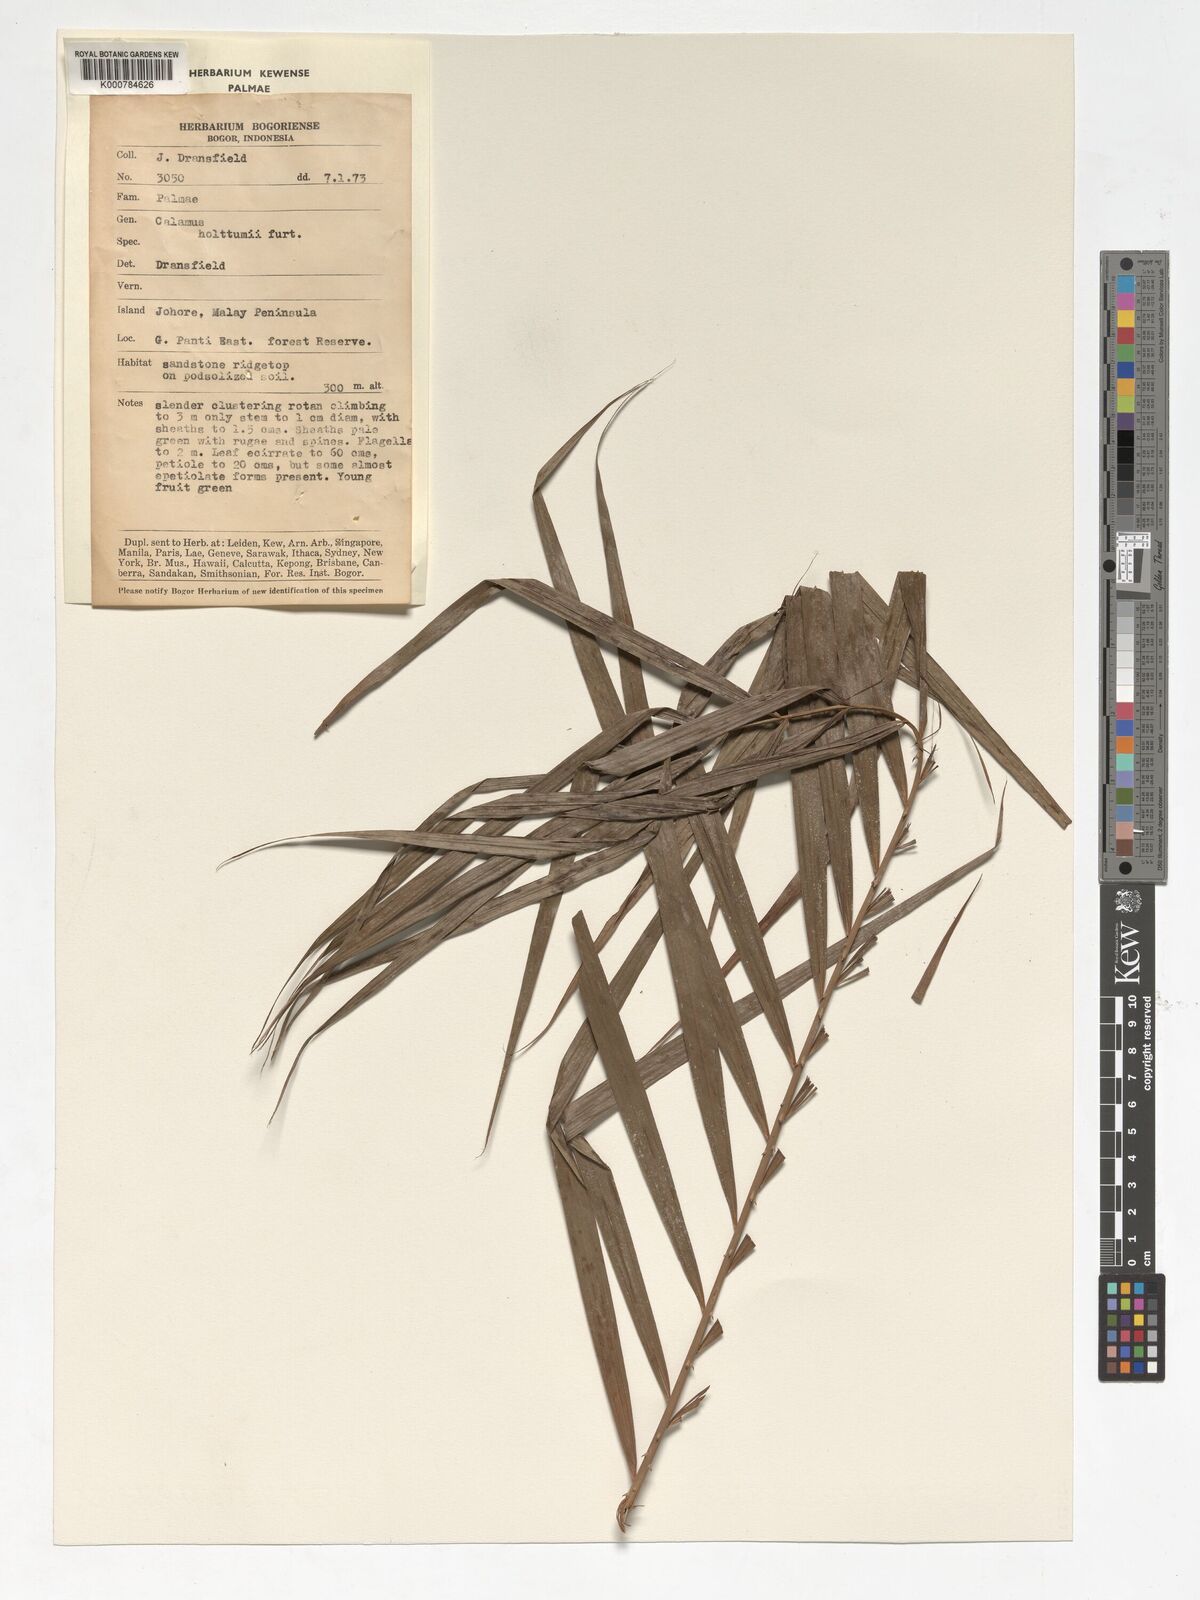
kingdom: Plantae
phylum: Tracheophyta
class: Liliopsida
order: Arecales
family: Arecaceae
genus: Calamus
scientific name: Calamus holttumii
